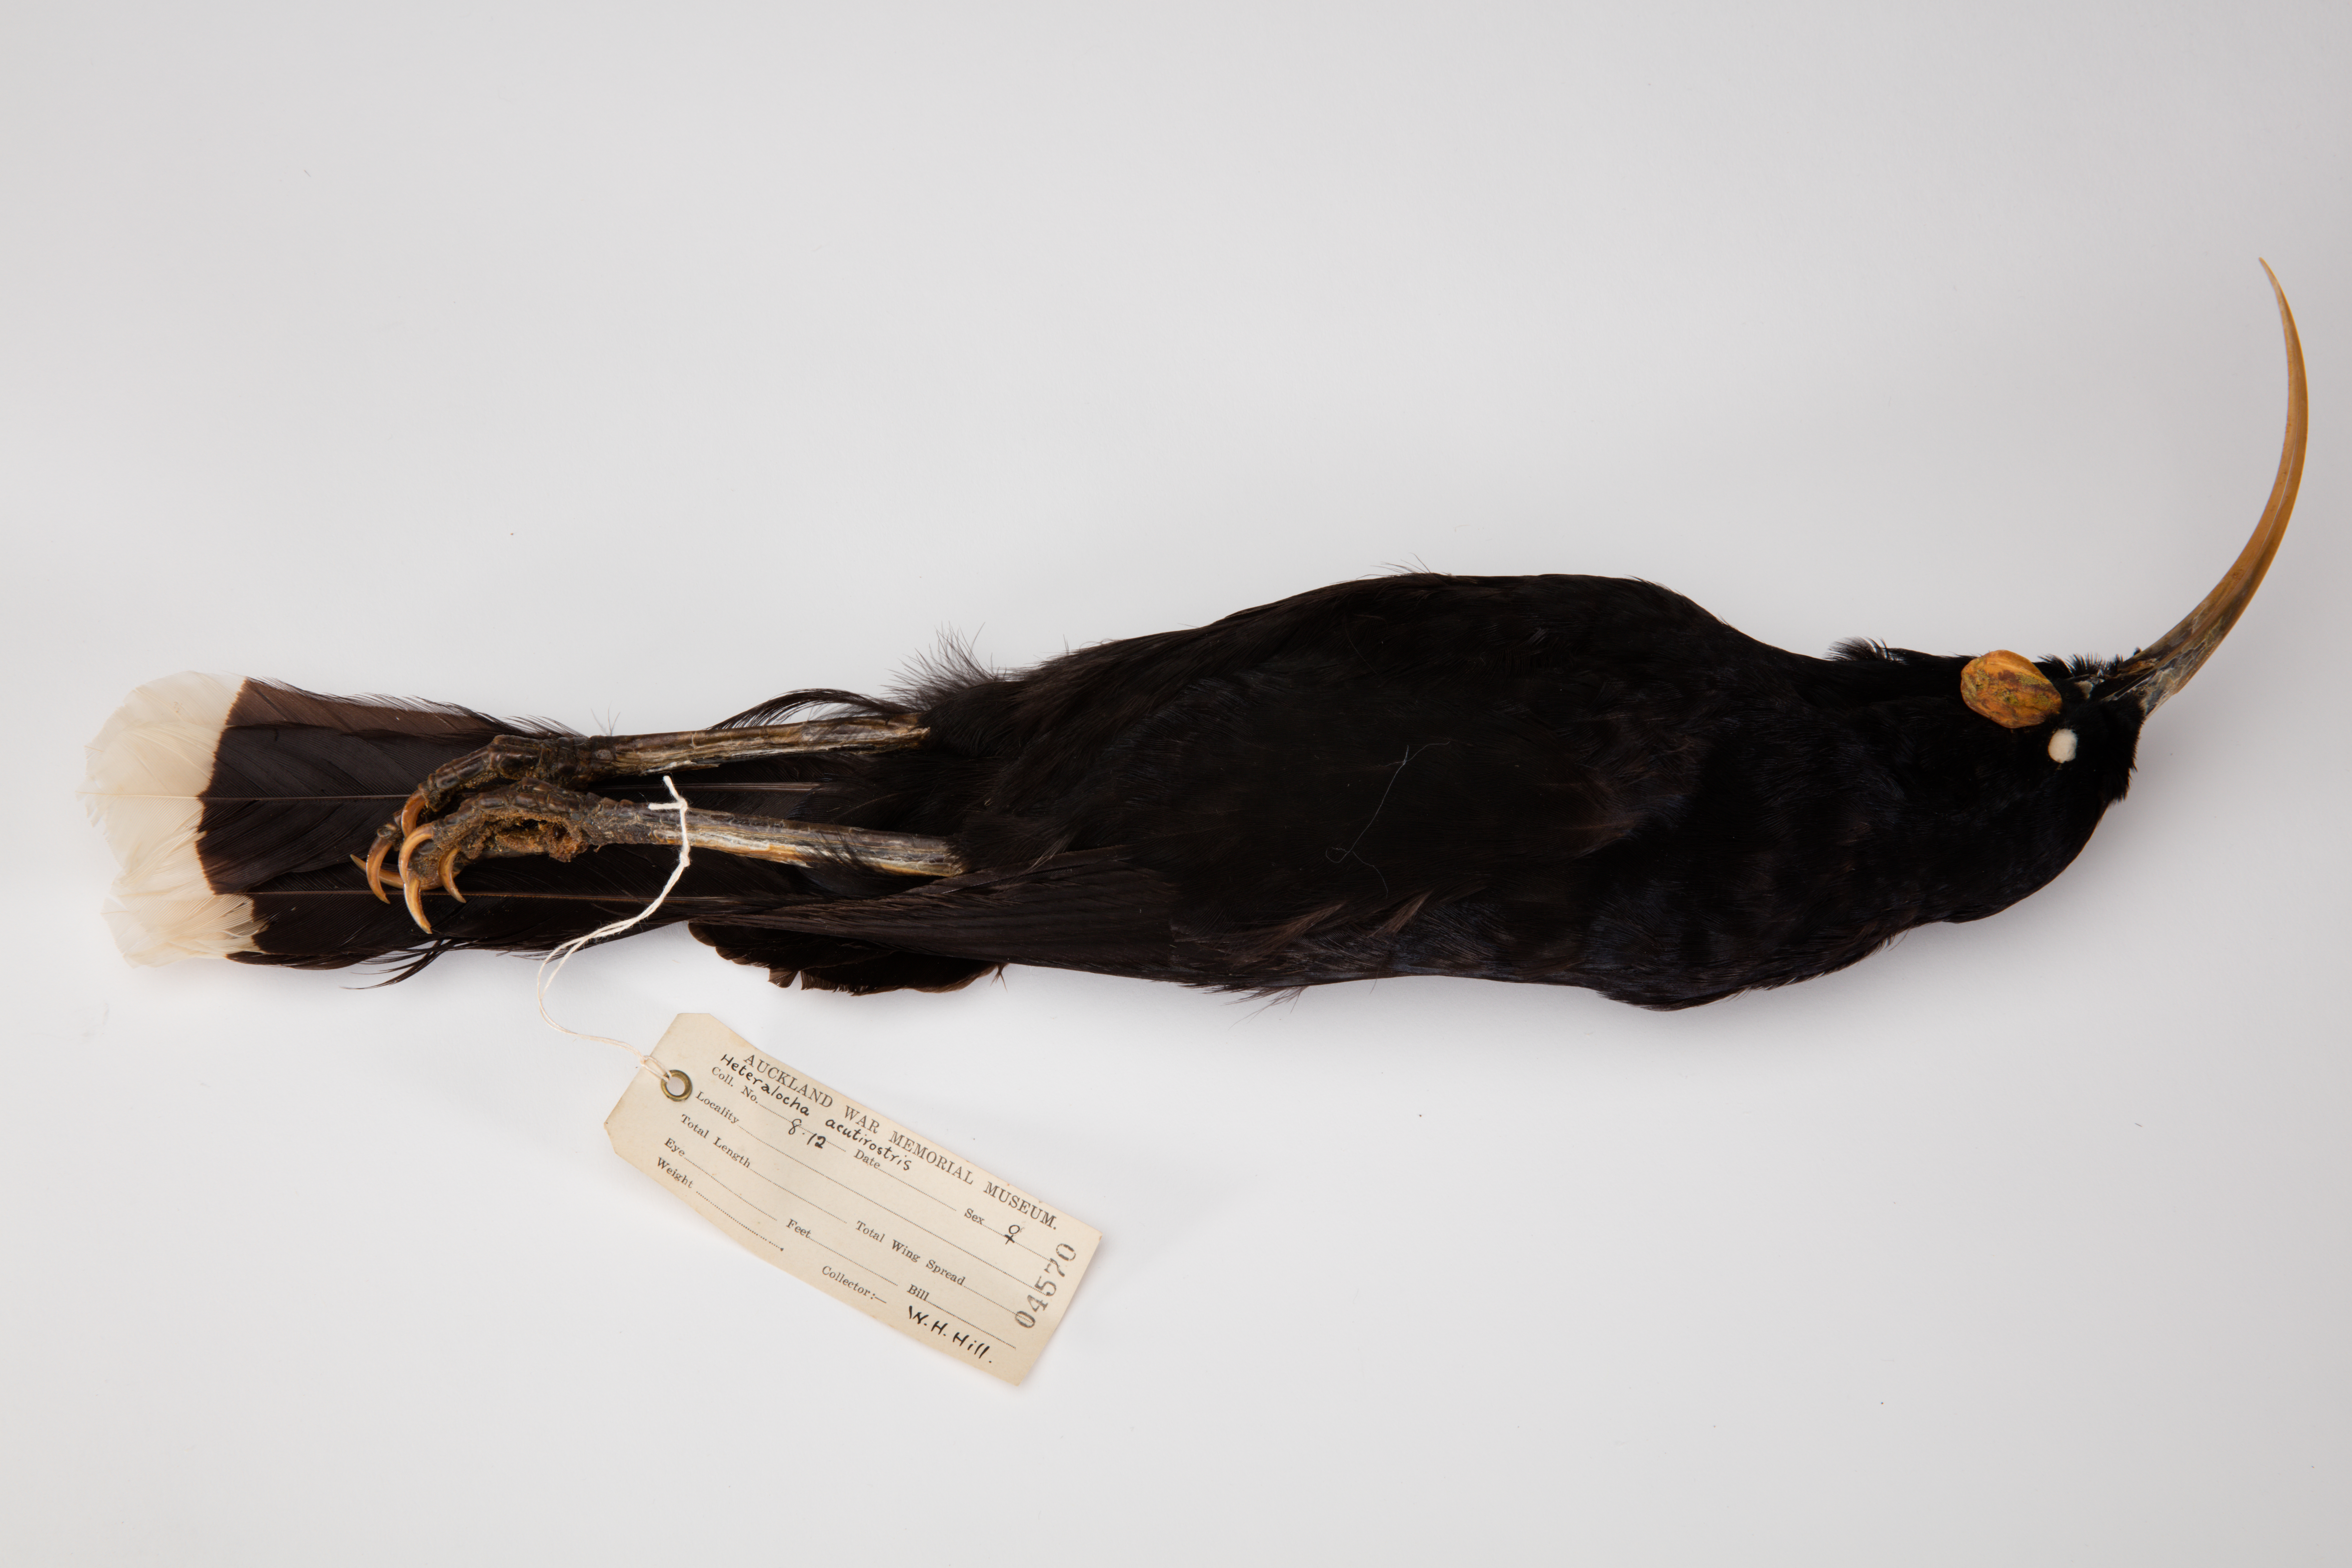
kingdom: Animalia
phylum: Chordata
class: Aves
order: Passeriformes
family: Callaeatidae
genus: Heteralocha
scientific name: Heteralocha acutirostris
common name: Huia
